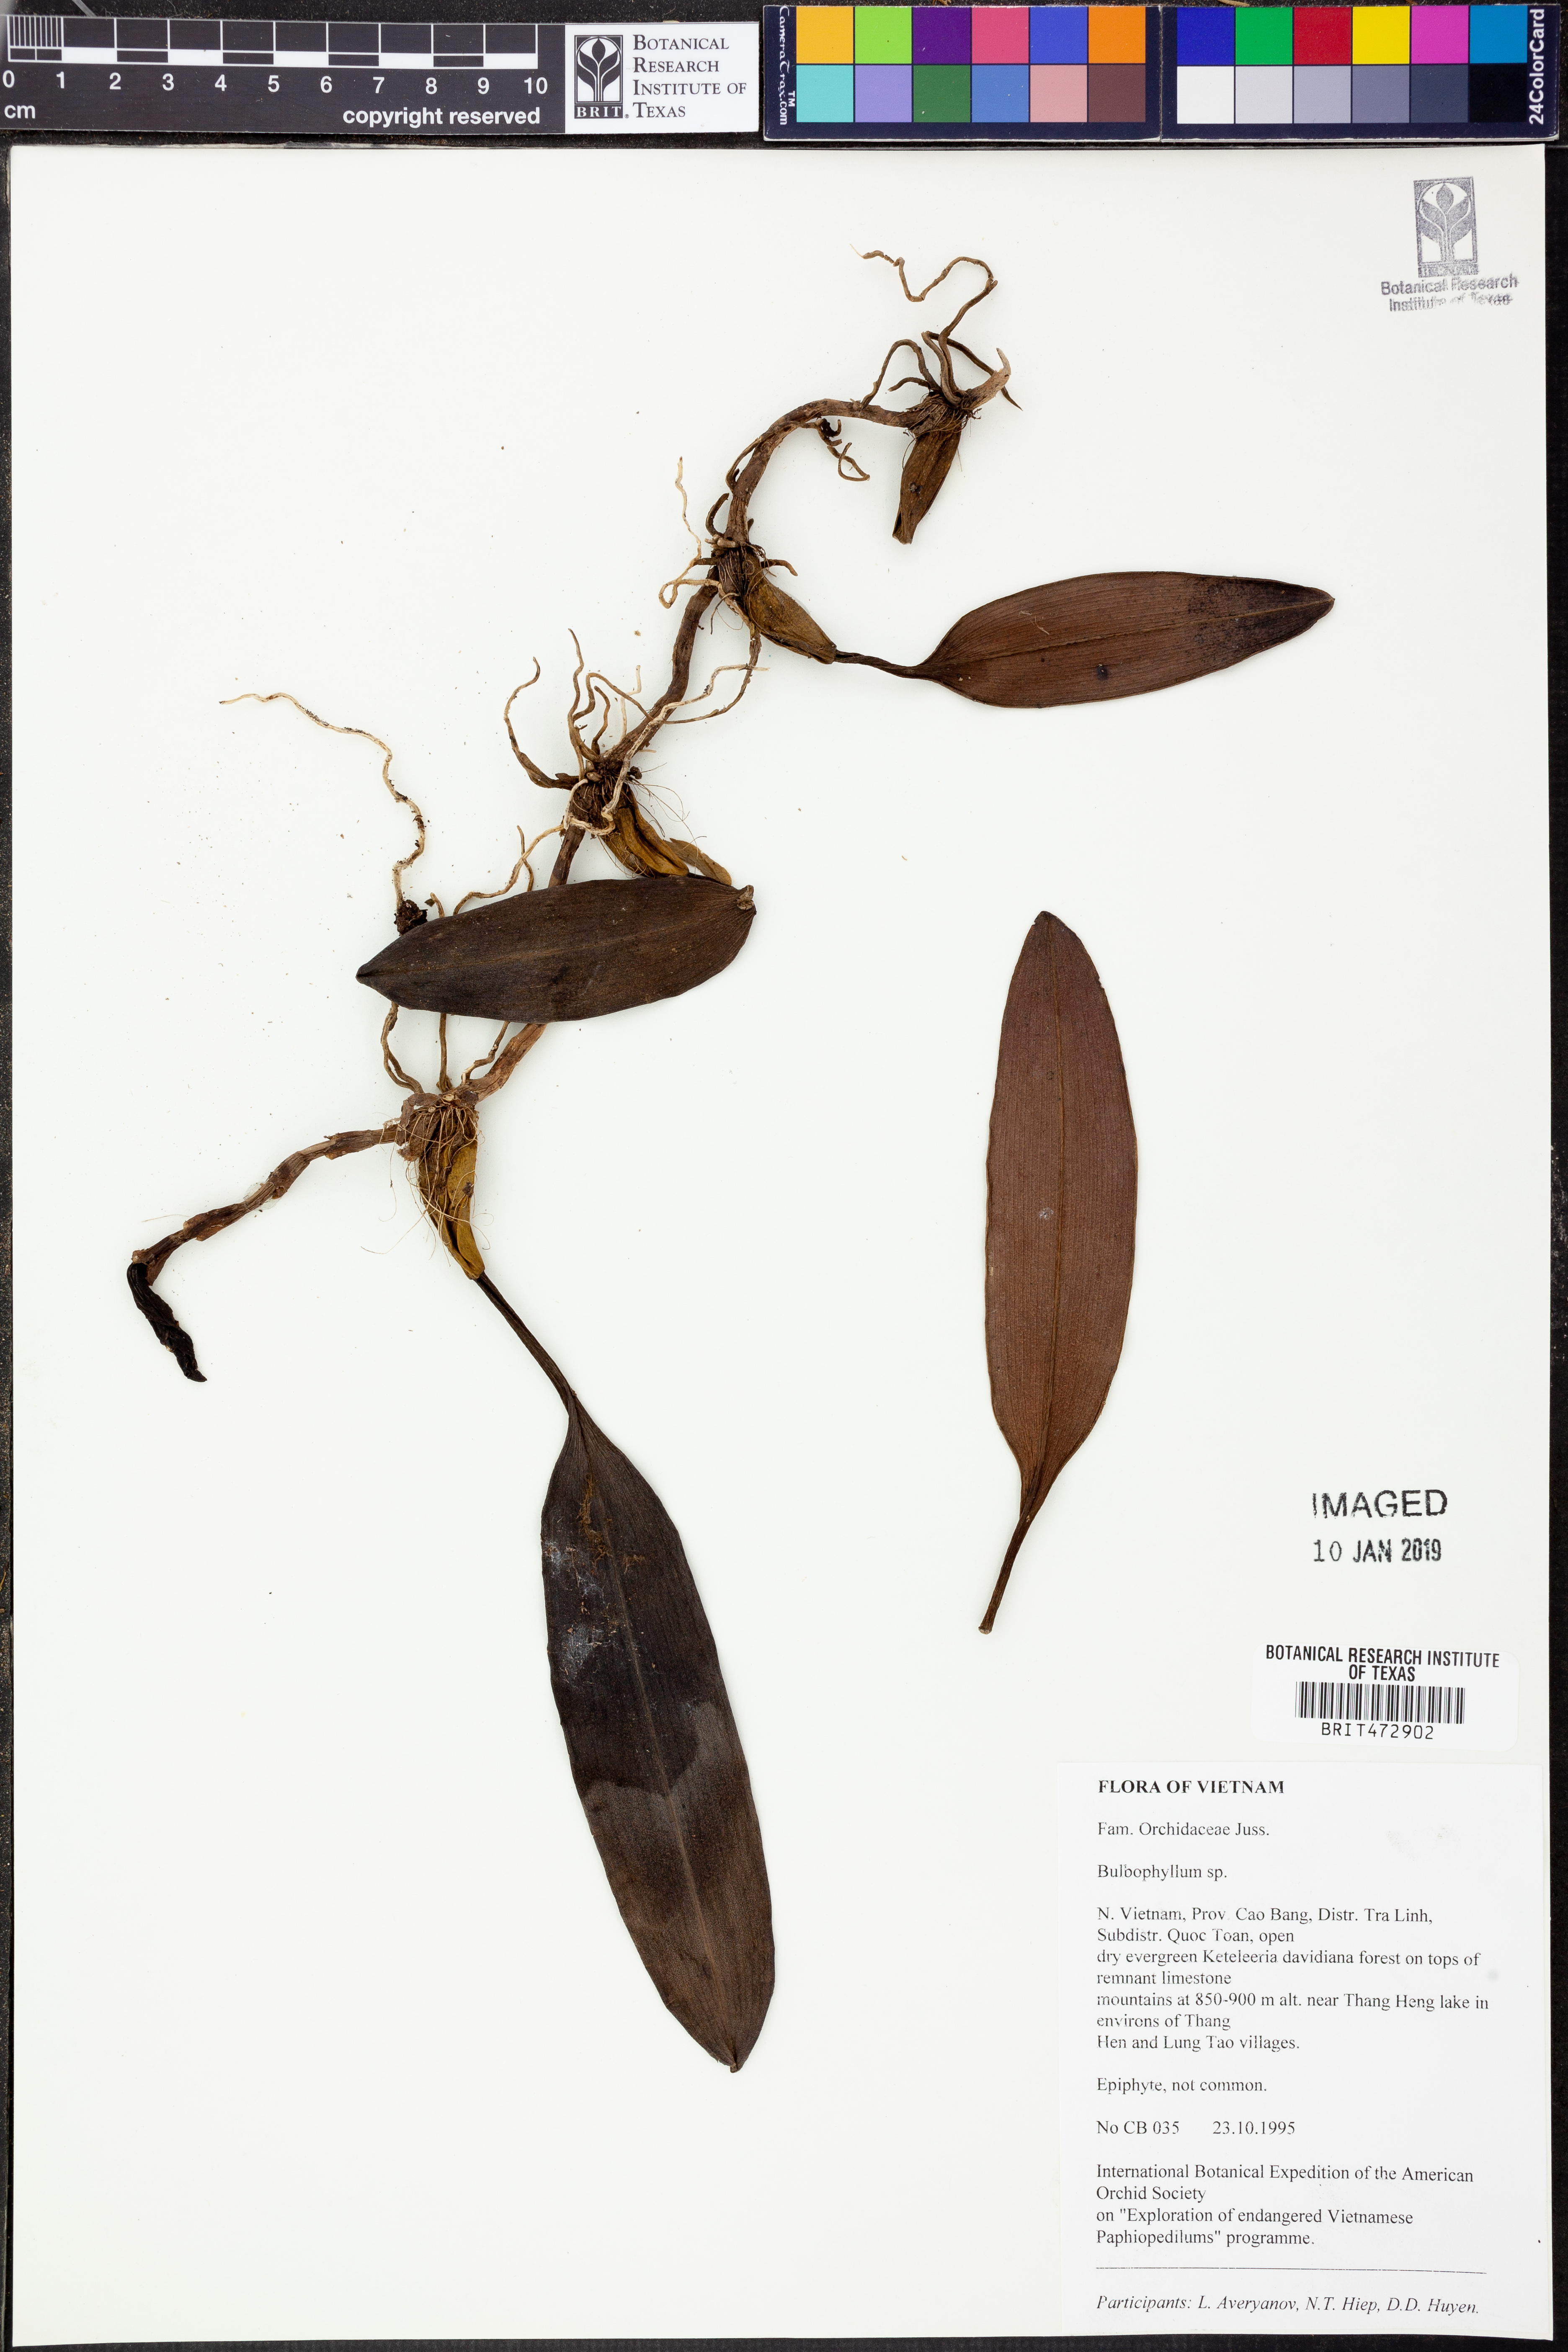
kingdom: Plantae
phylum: Tracheophyta
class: Liliopsida
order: Asparagales
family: Orchidaceae
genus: Bulbophyllum
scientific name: Bulbophyllum
